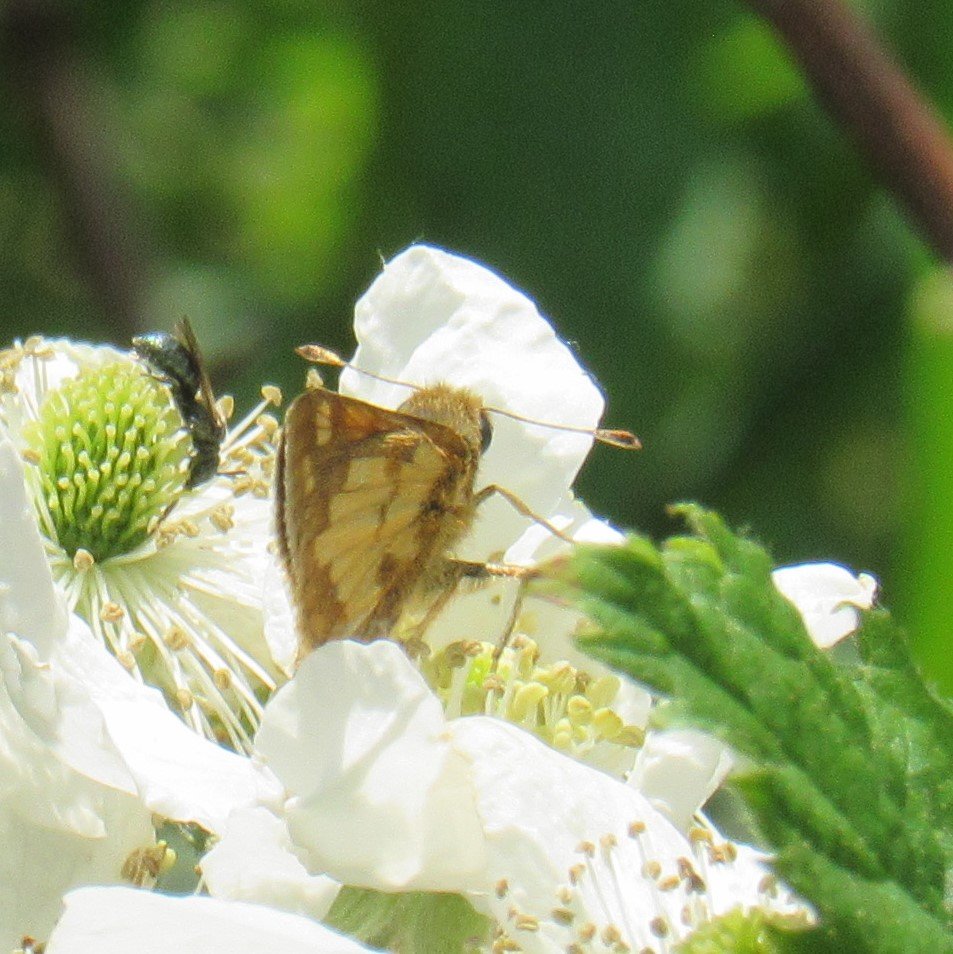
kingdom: Animalia
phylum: Arthropoda
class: Insecta
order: Lepidoptera
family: Hesperiidae
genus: Polites
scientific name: Polites coras
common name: Peck's Skipper
